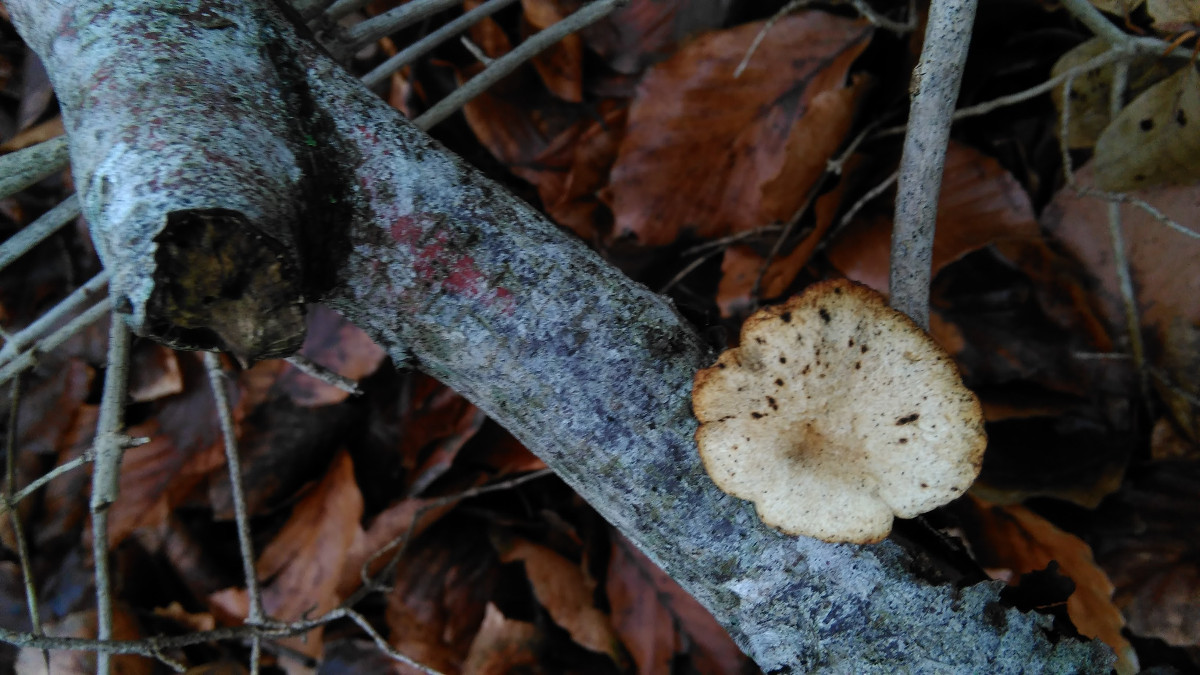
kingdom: Fungi
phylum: Basidiomycota
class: Agaricomycetes
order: Polyporales
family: Polyporaceae
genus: Cerioporus
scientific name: Cerioporus varius
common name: foranderlig stilkporesvamp
